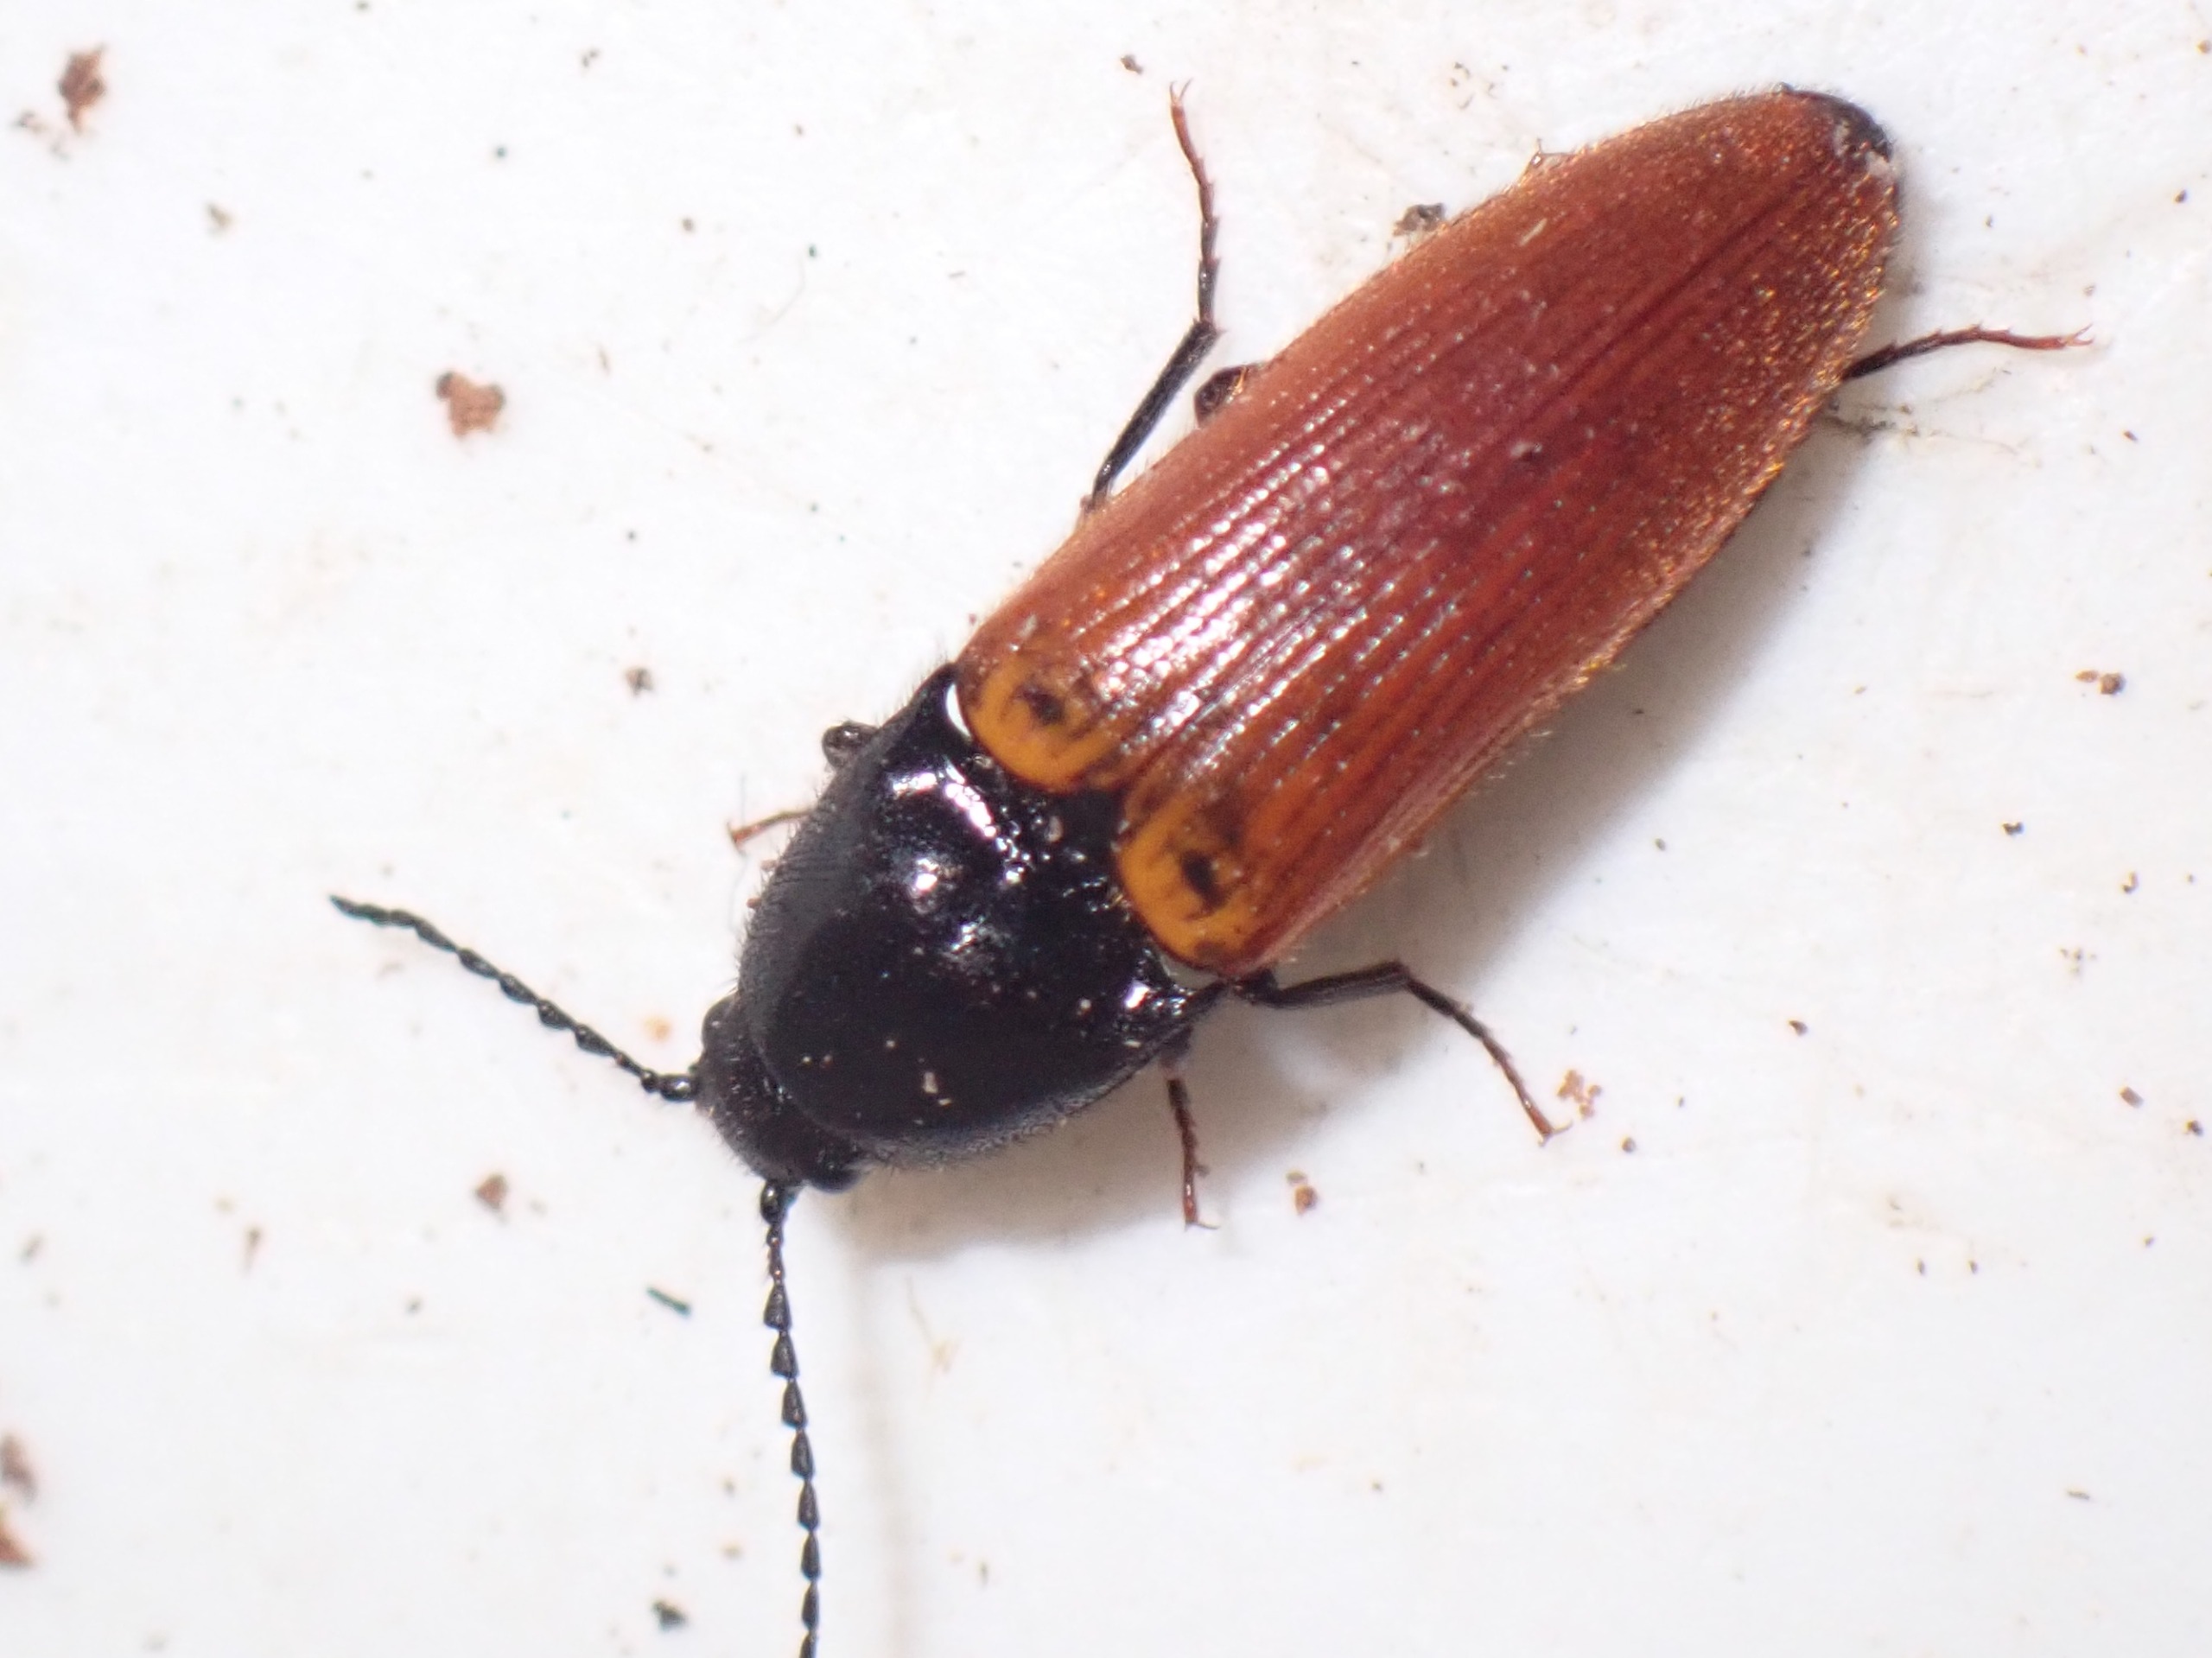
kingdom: Animalia
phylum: Arthropoda
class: Insecta
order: Coleoptera
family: Elateridae
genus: Ampedus
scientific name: Ampedus nigroflavus
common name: Gul skovsmælder
